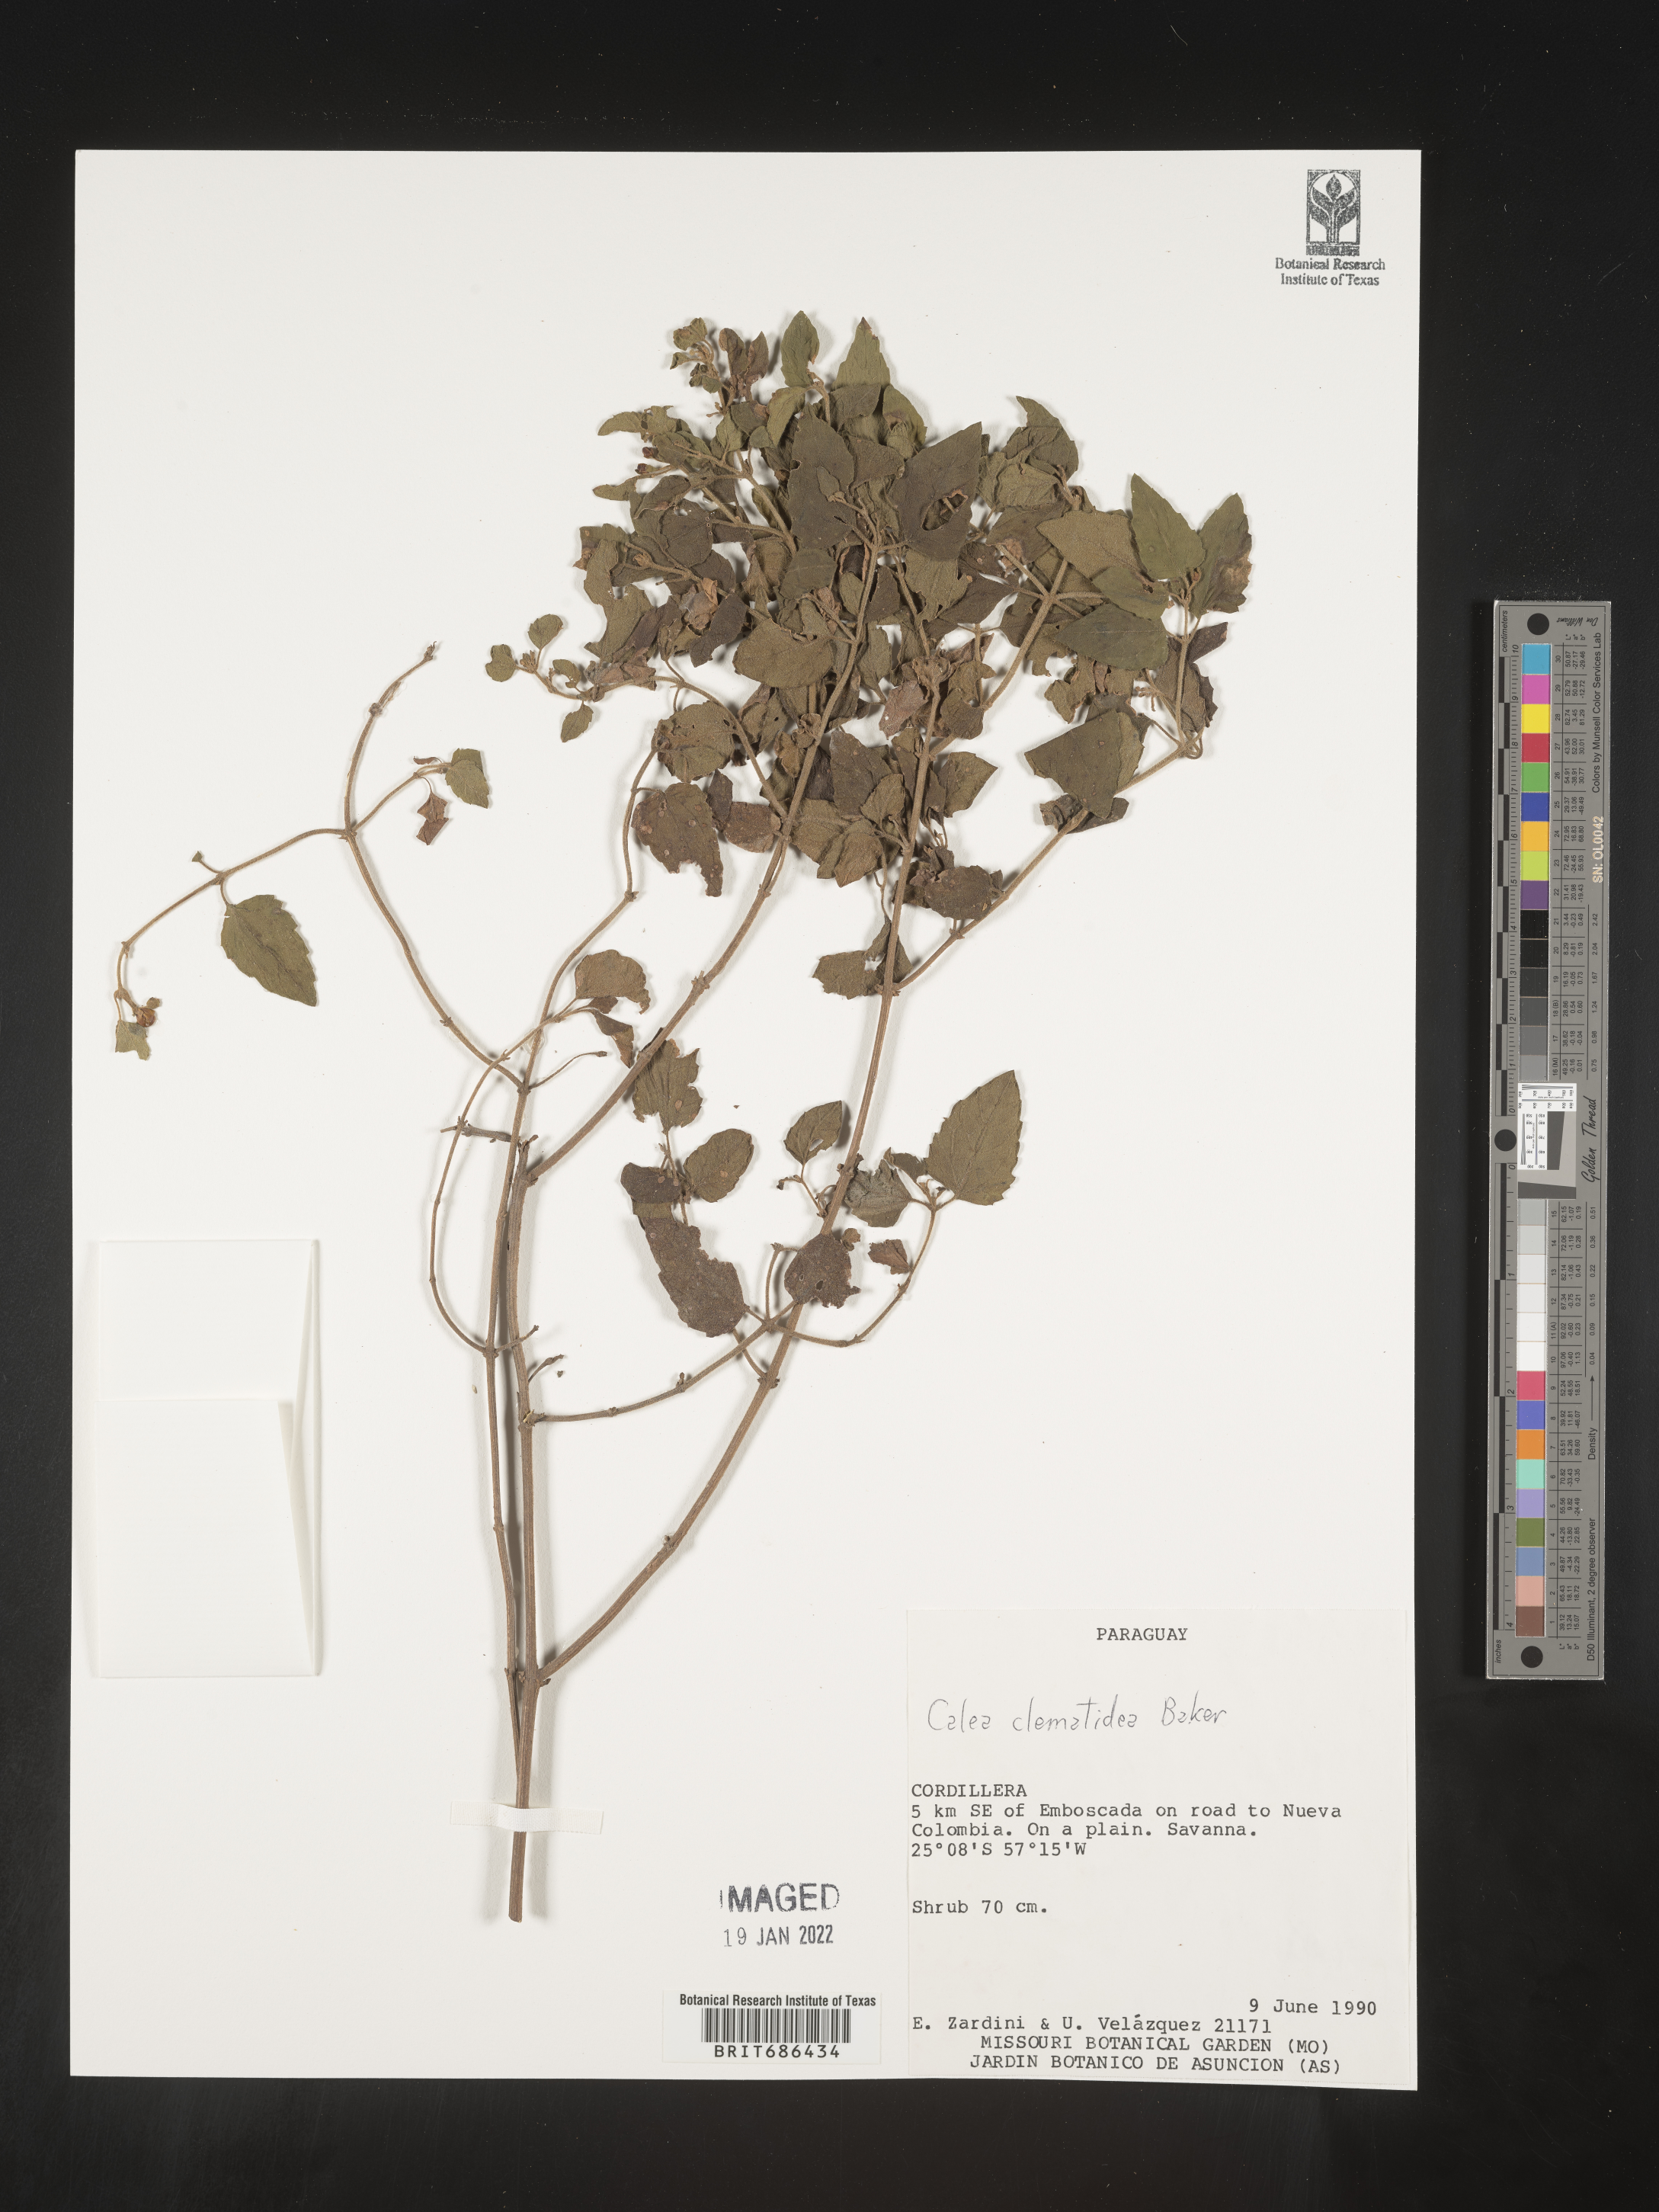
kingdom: Plantae
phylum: Tracheophyta
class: Magnoliopsida
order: Asterales
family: Asteraceae
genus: Calea
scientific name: Calea
